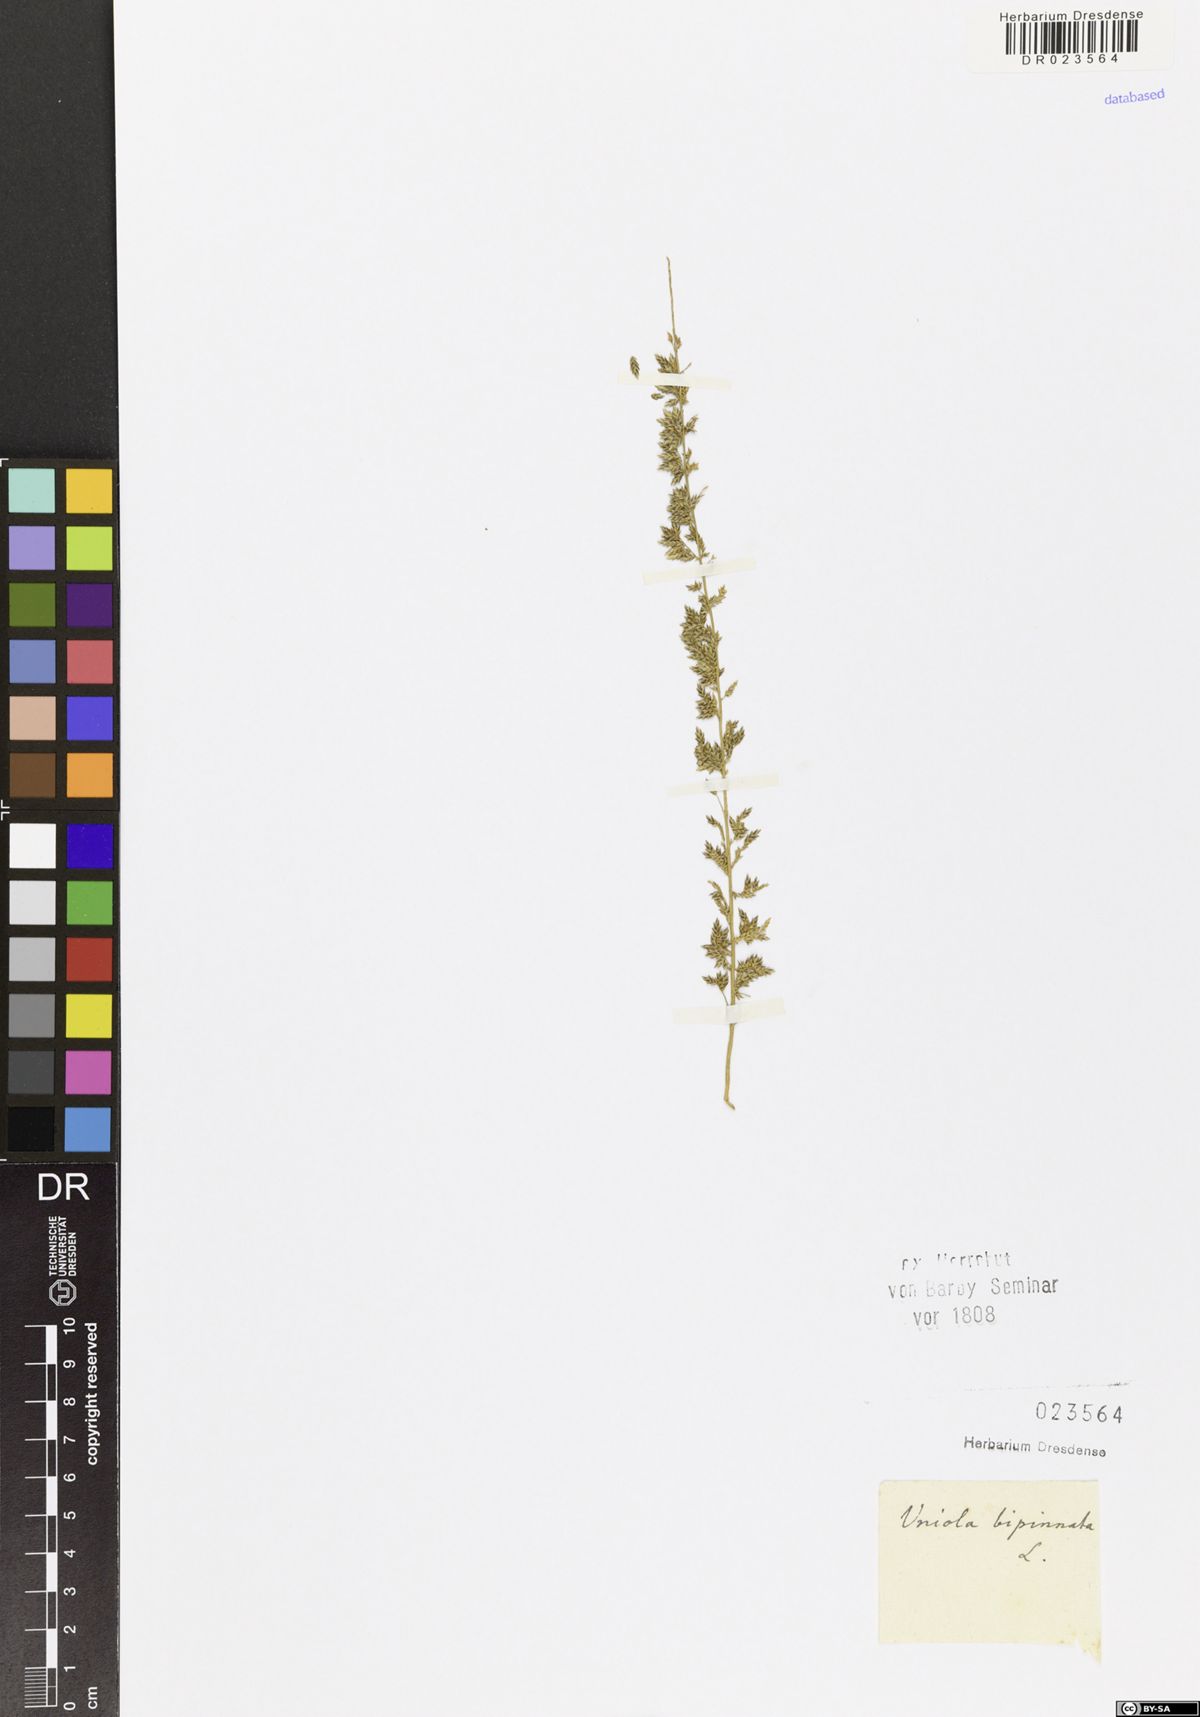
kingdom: Plantae
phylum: Tracheophyta
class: Liliopsida
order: Poales
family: Poaceae
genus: Desmostachya
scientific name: Desmostachya bipinnata
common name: Crowfoot grass
